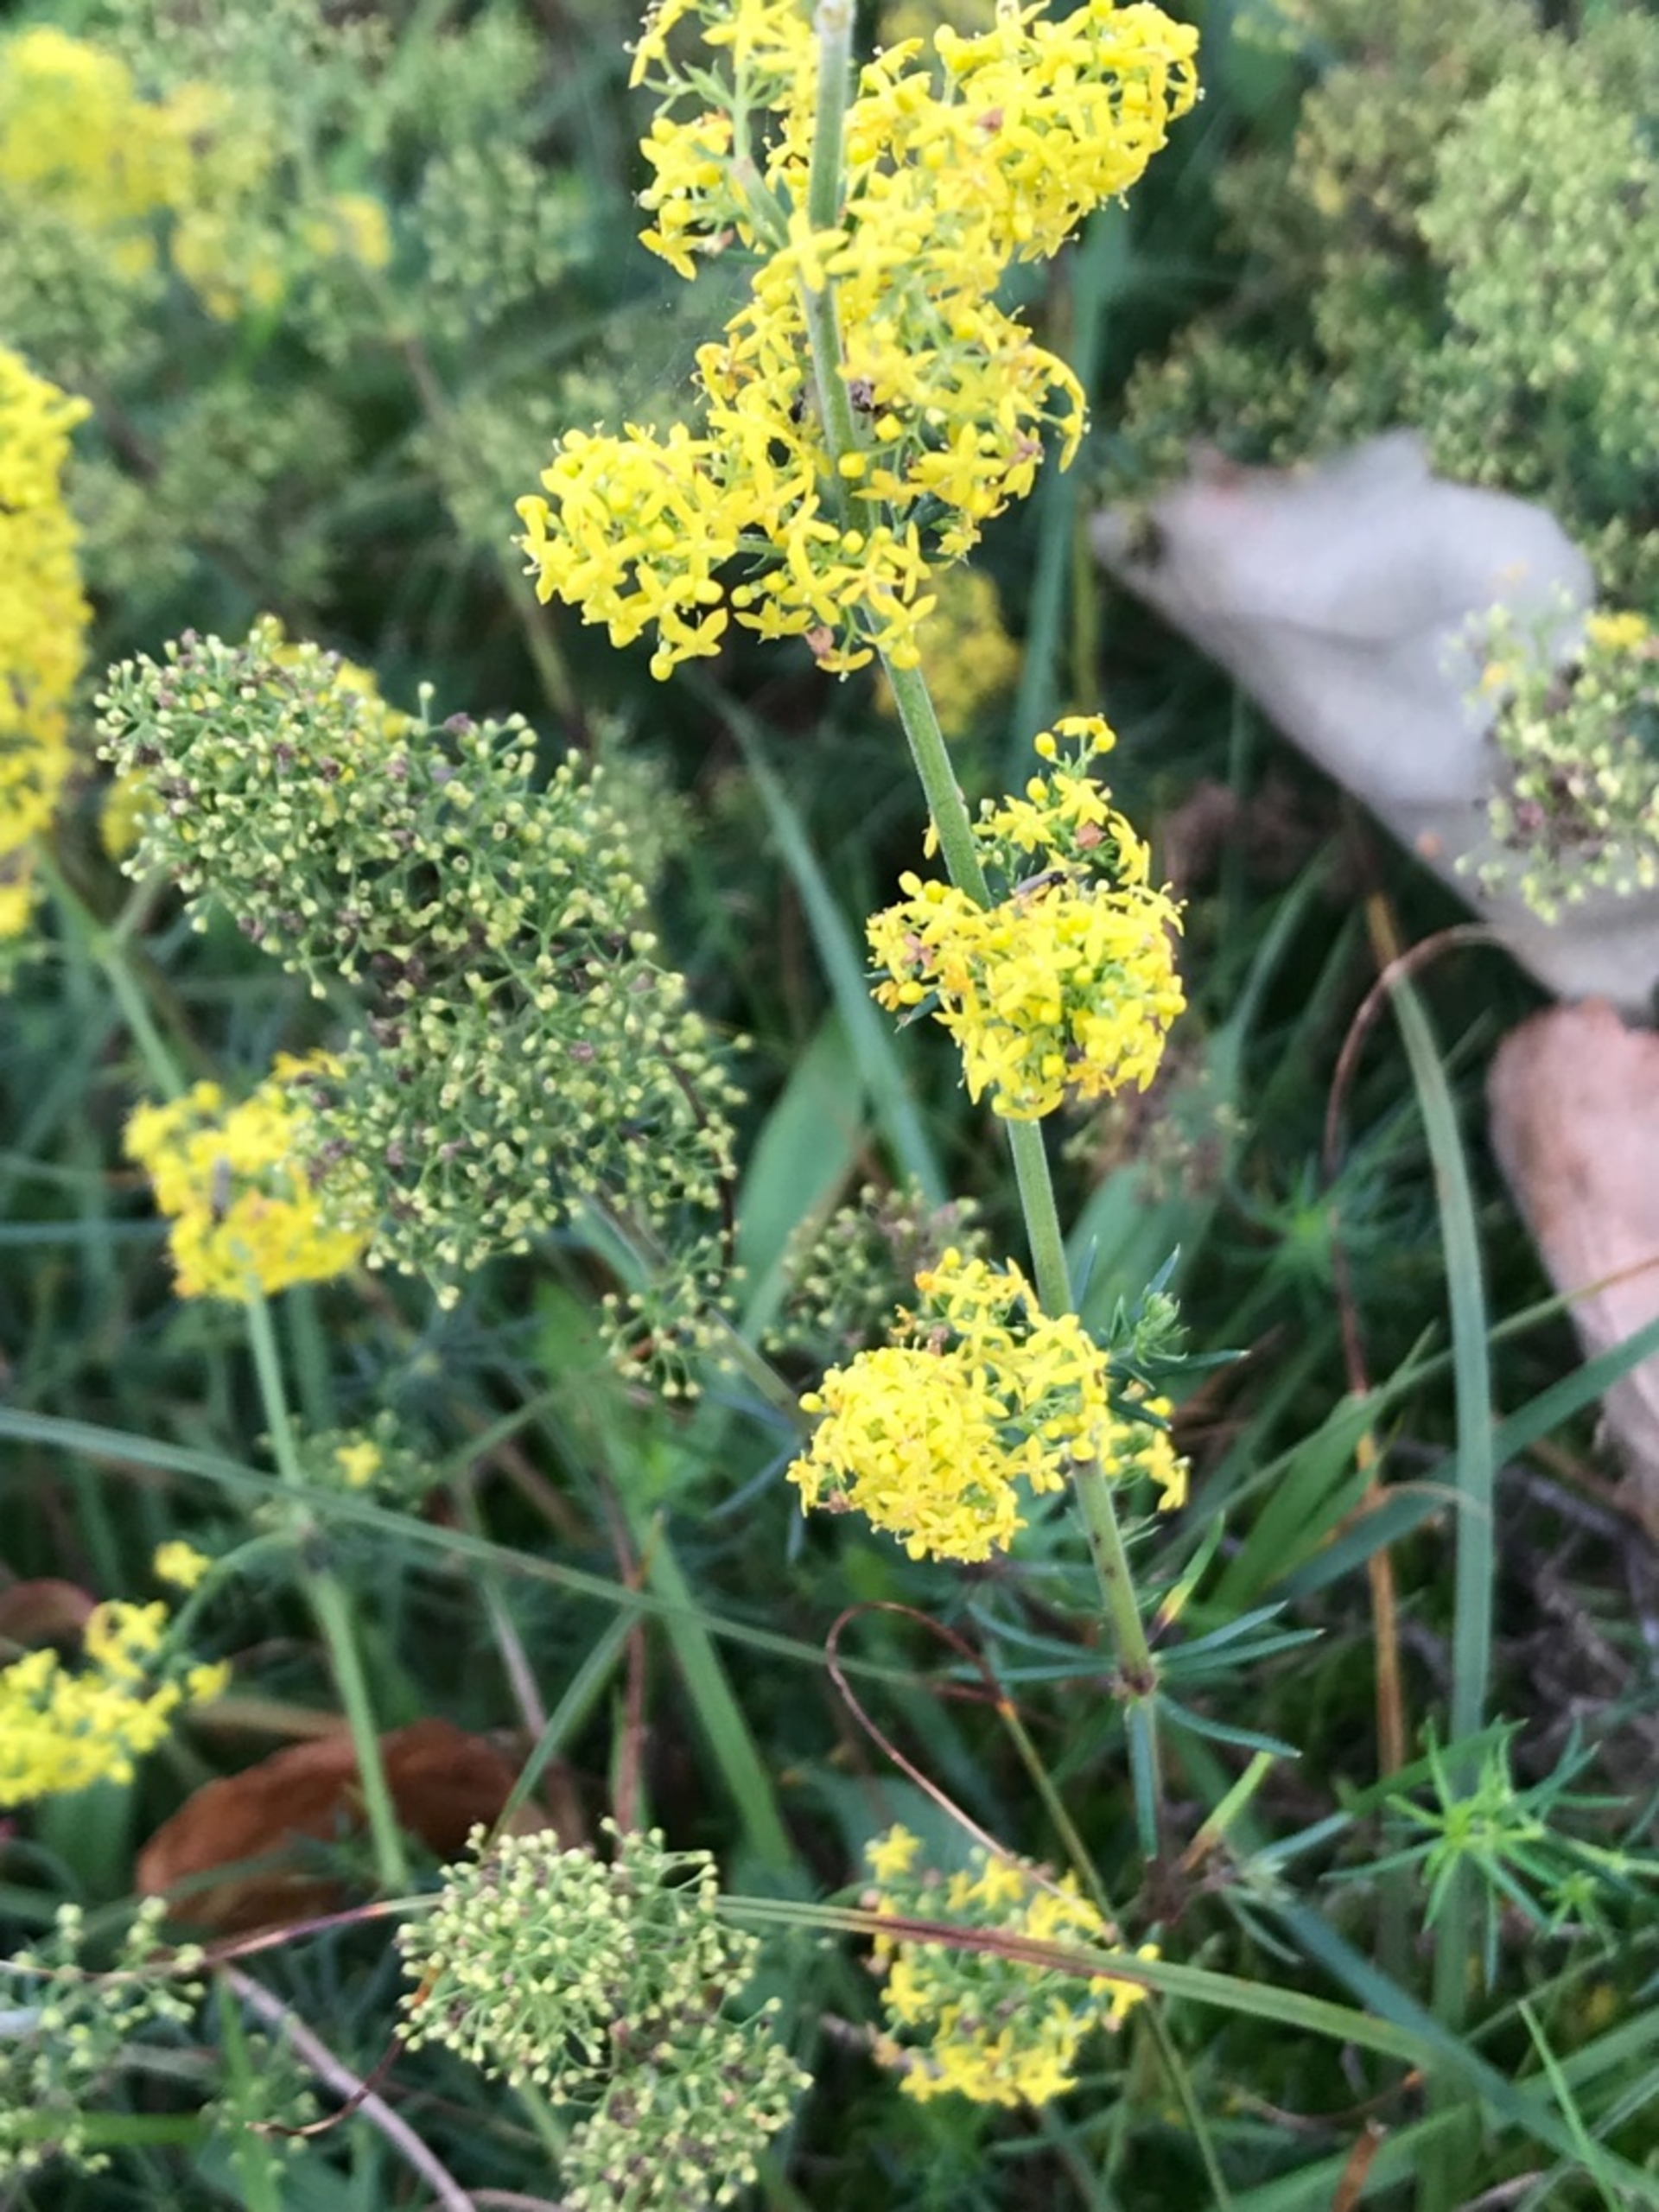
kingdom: Plantae
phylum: Tracheophyta
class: Magnoliopsida
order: Gentianales
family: Rubiaceae
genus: Galium
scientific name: Galium verum
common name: Gul snerre
